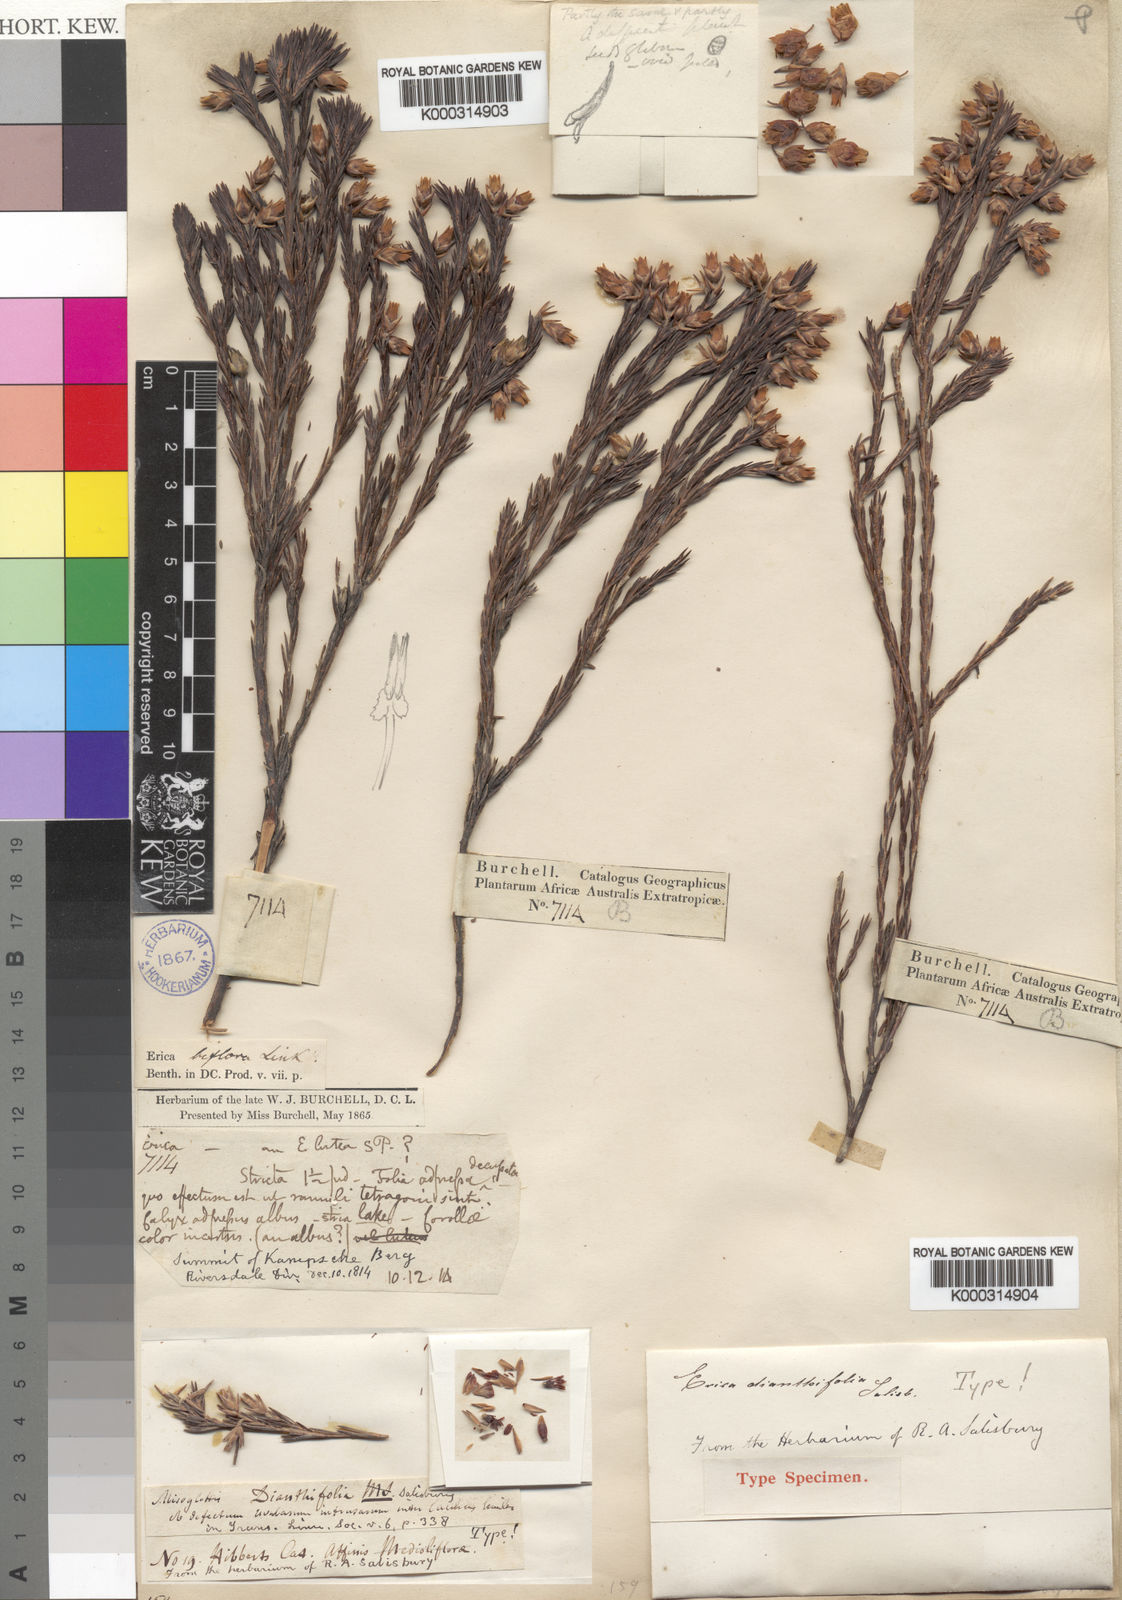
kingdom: Plantae
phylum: Tracheophyta
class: Magnoliopsida
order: Ericales
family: Ericaceae
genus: Erica
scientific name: Erica dianthifolia
